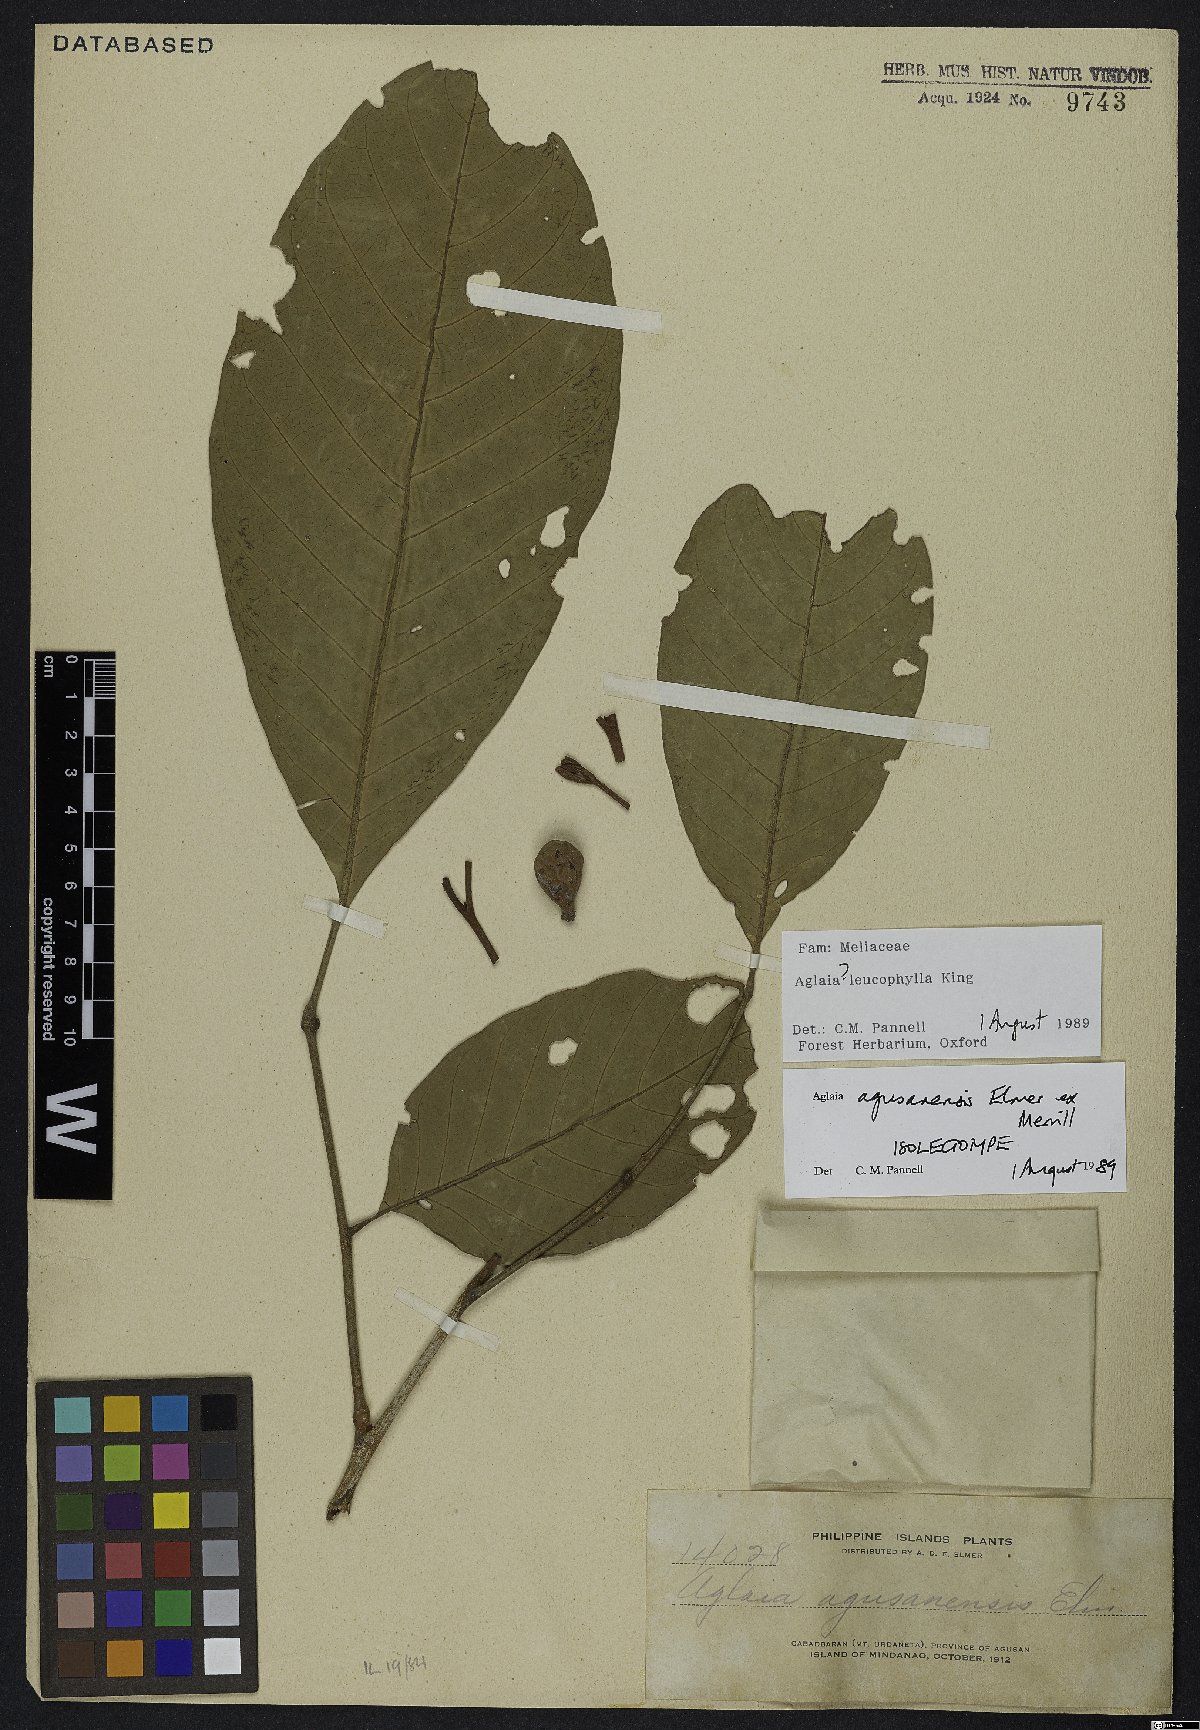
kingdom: Plantae
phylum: Tracheophyta
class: Magnoliopsida
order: Sapindales
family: Meliaceae
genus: Aglaia
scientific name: Aglaia leucophylla
